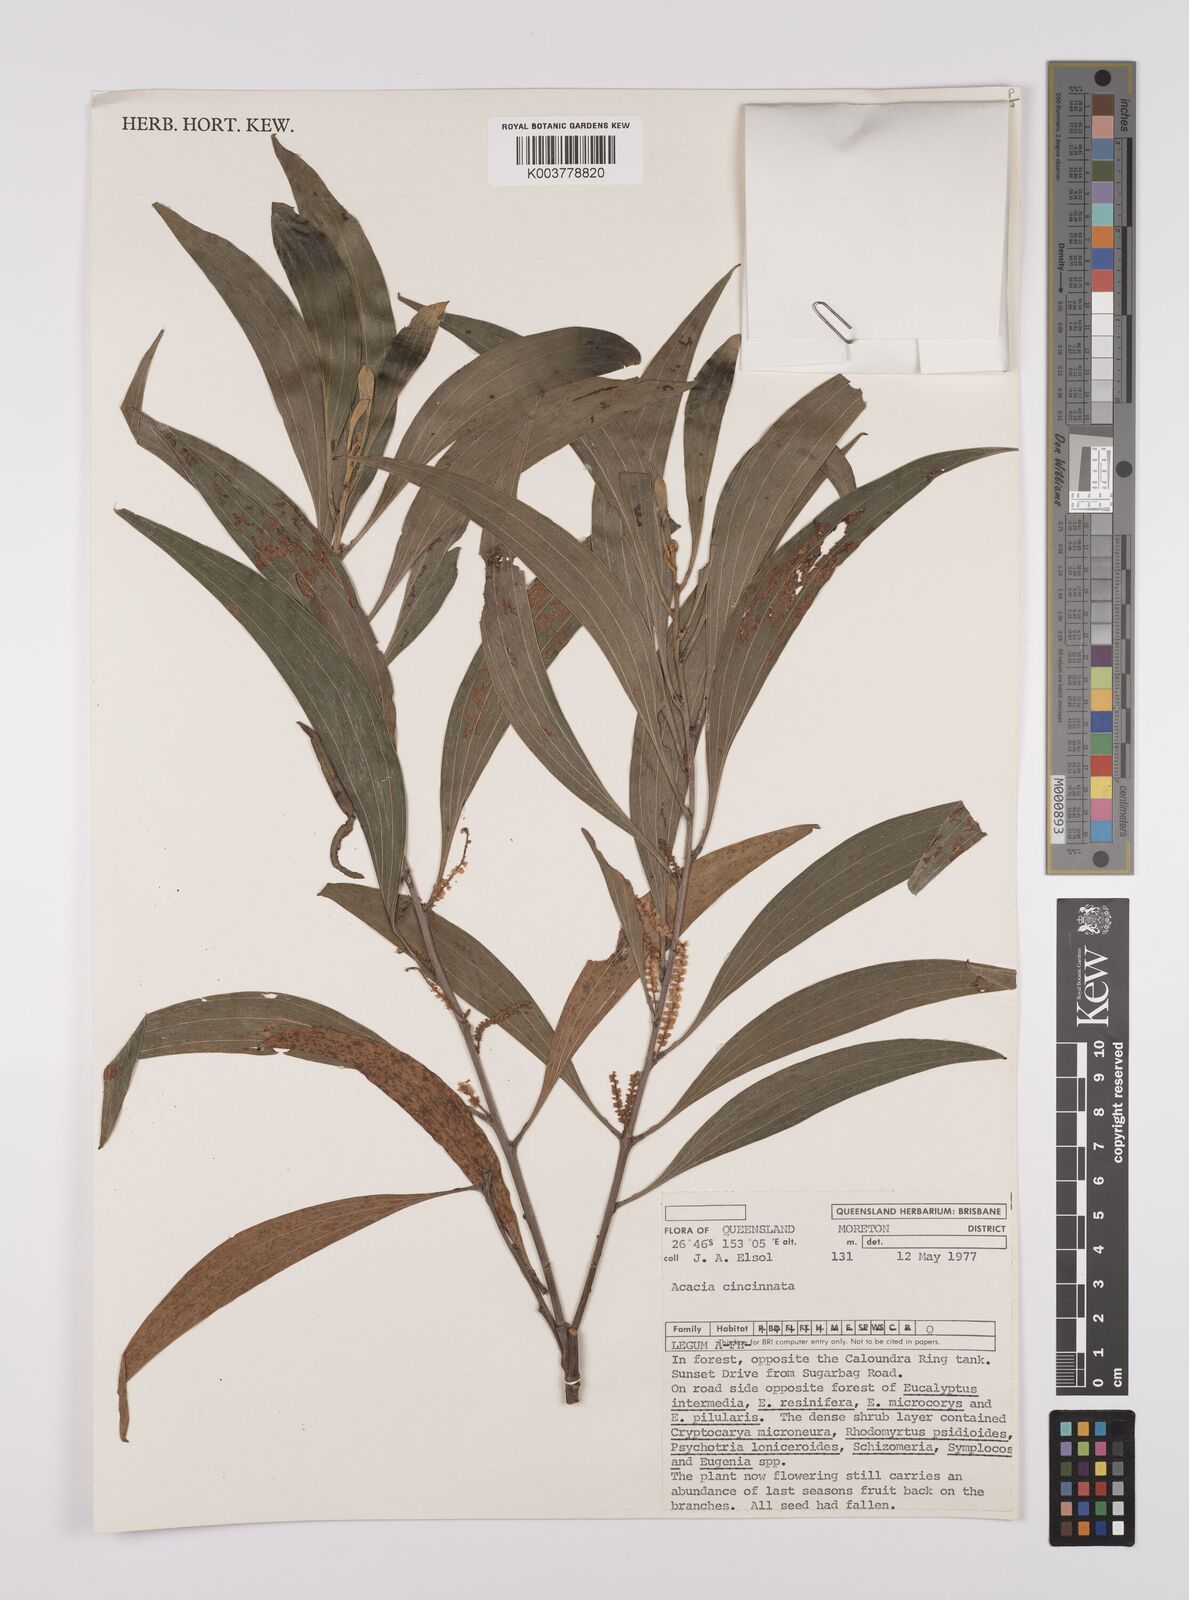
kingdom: Plantae
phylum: Tracheophyta
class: Magnoliopsida
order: Fabales
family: Fabaceae
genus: Acacia
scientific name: Acacia cincinnata
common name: Daintree wattle
